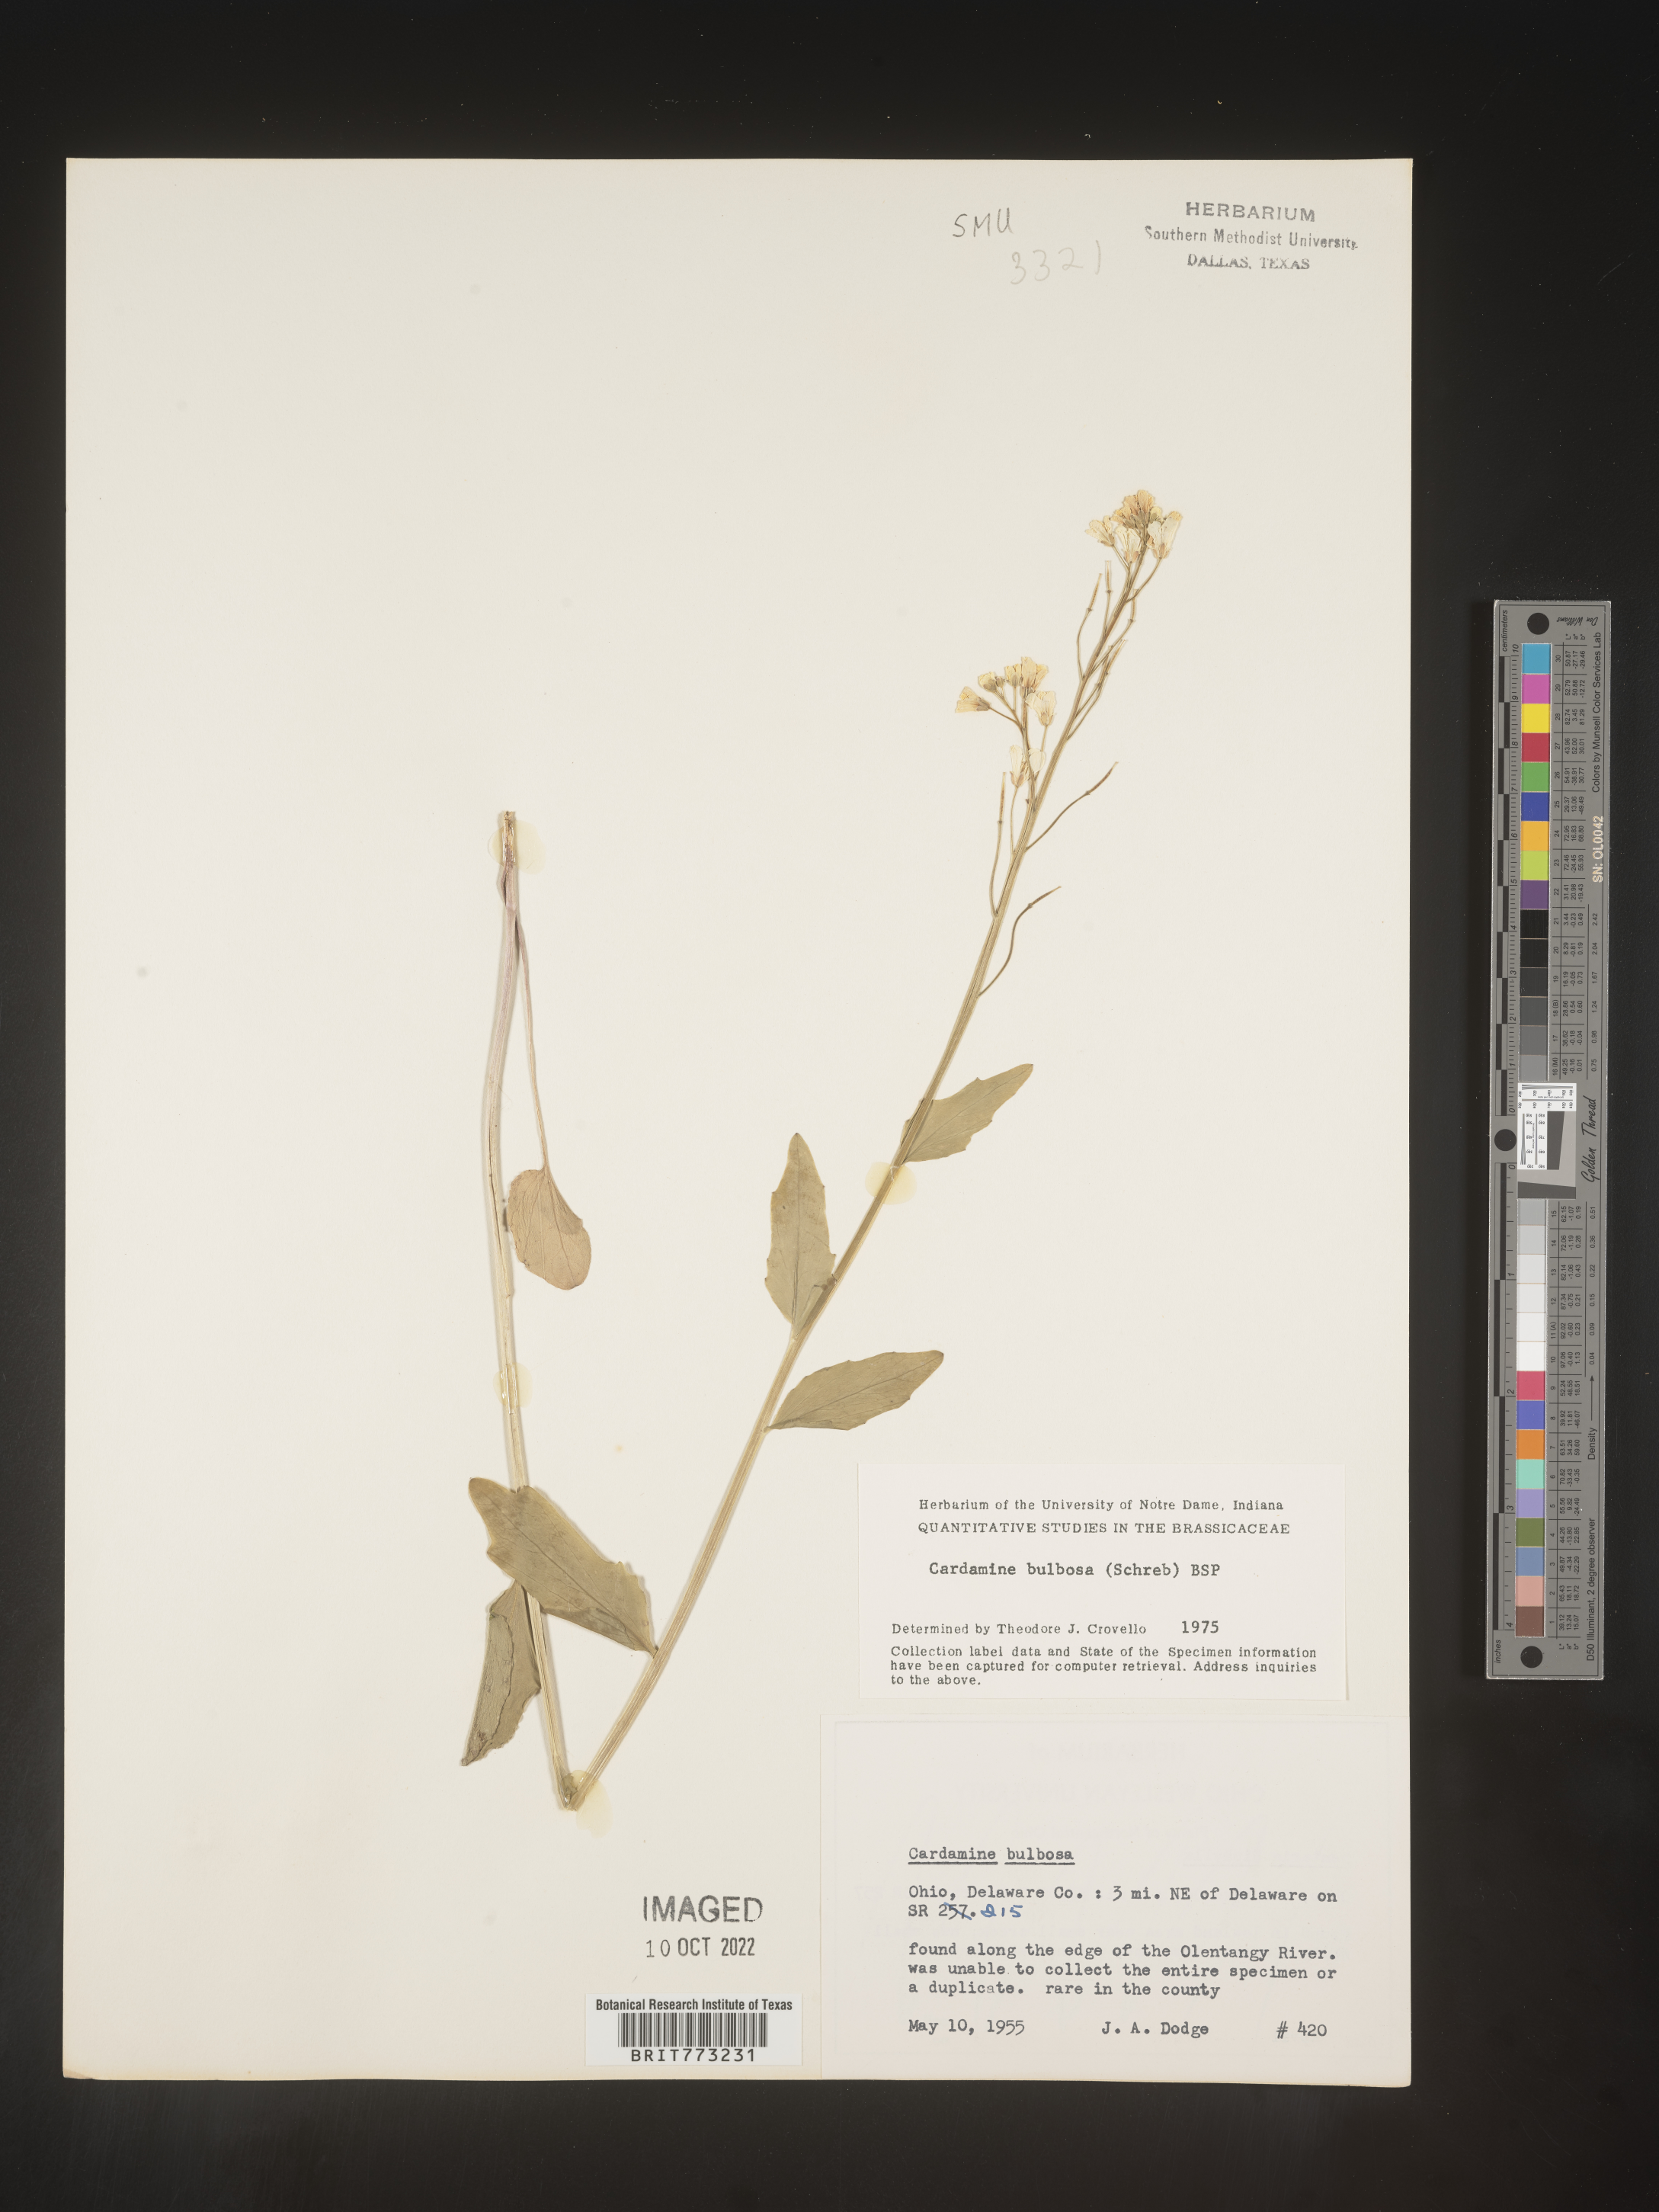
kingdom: Plantae
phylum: Tracheophyta
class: Magnoliopsida
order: Brassicales
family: Brassicaceae
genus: Cardamine
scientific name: Cardamine bulbosa
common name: Spring cress
